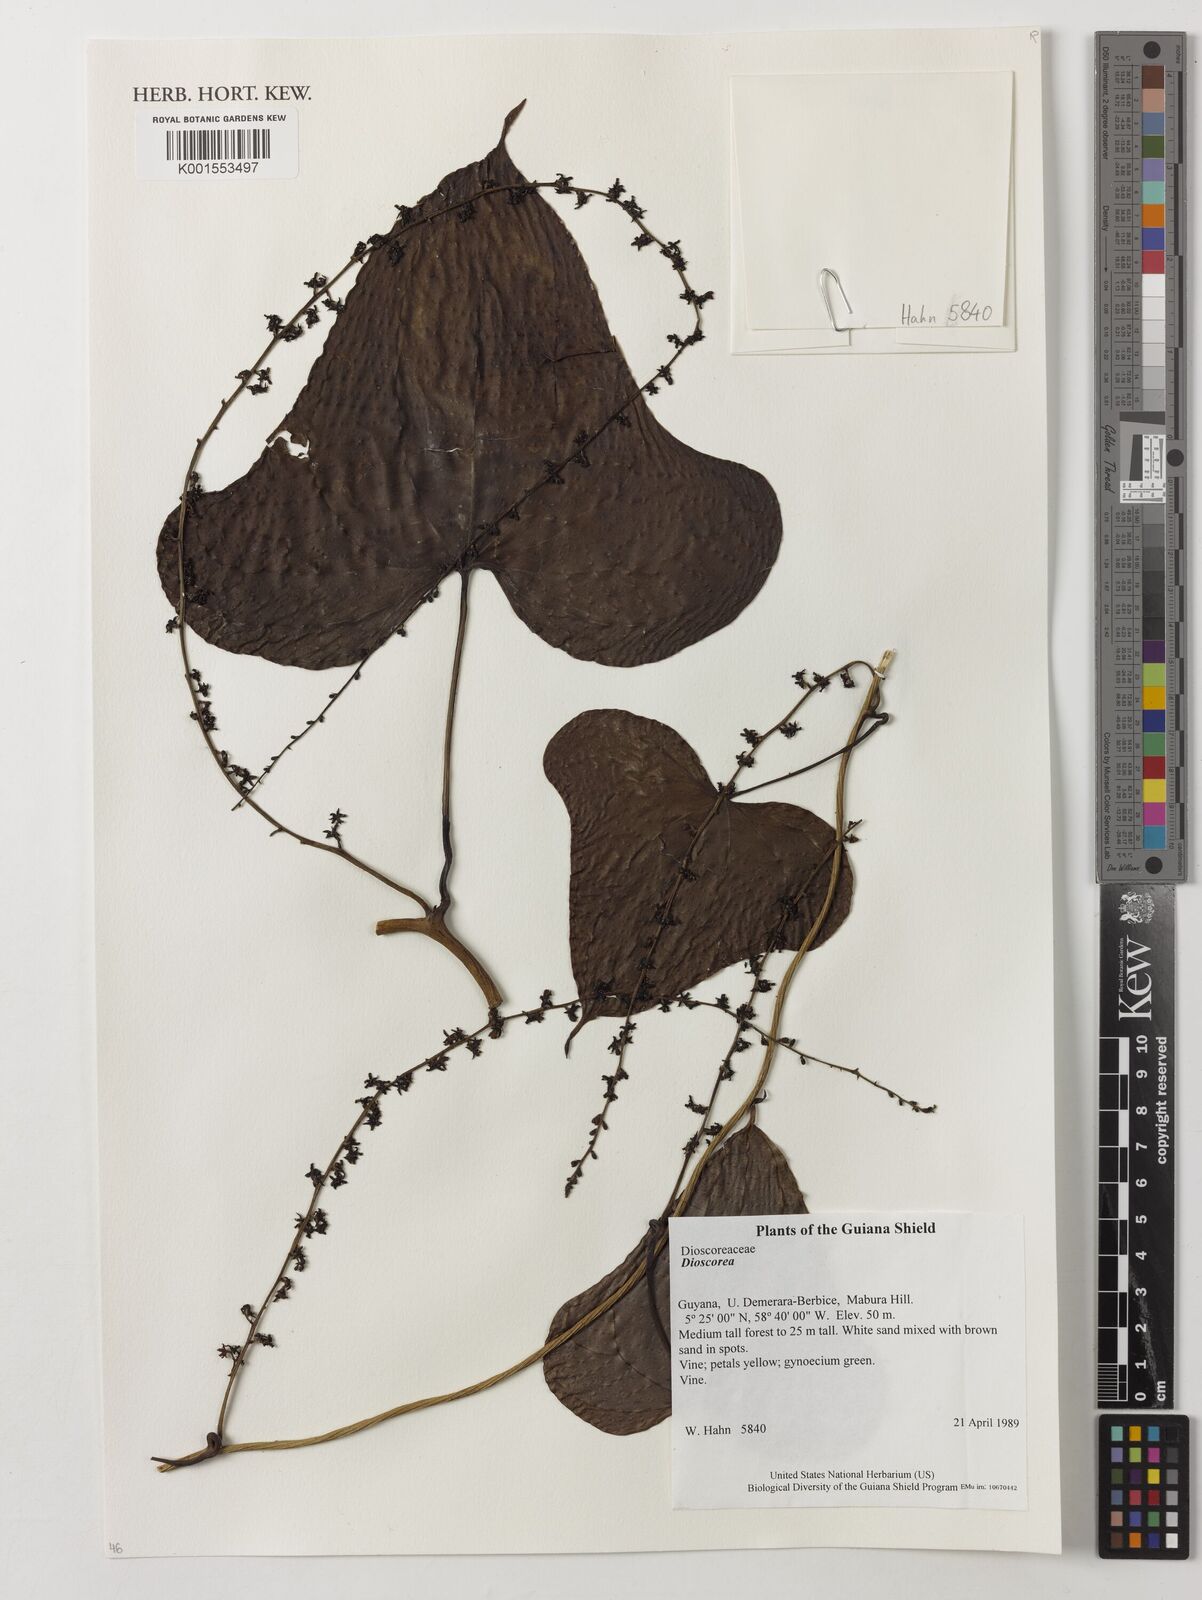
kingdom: Plantae
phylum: Tracheophyta
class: Liliopsida
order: Dioscoreales
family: Dioscoreaceae
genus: Dioscorea
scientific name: Dioscorea
